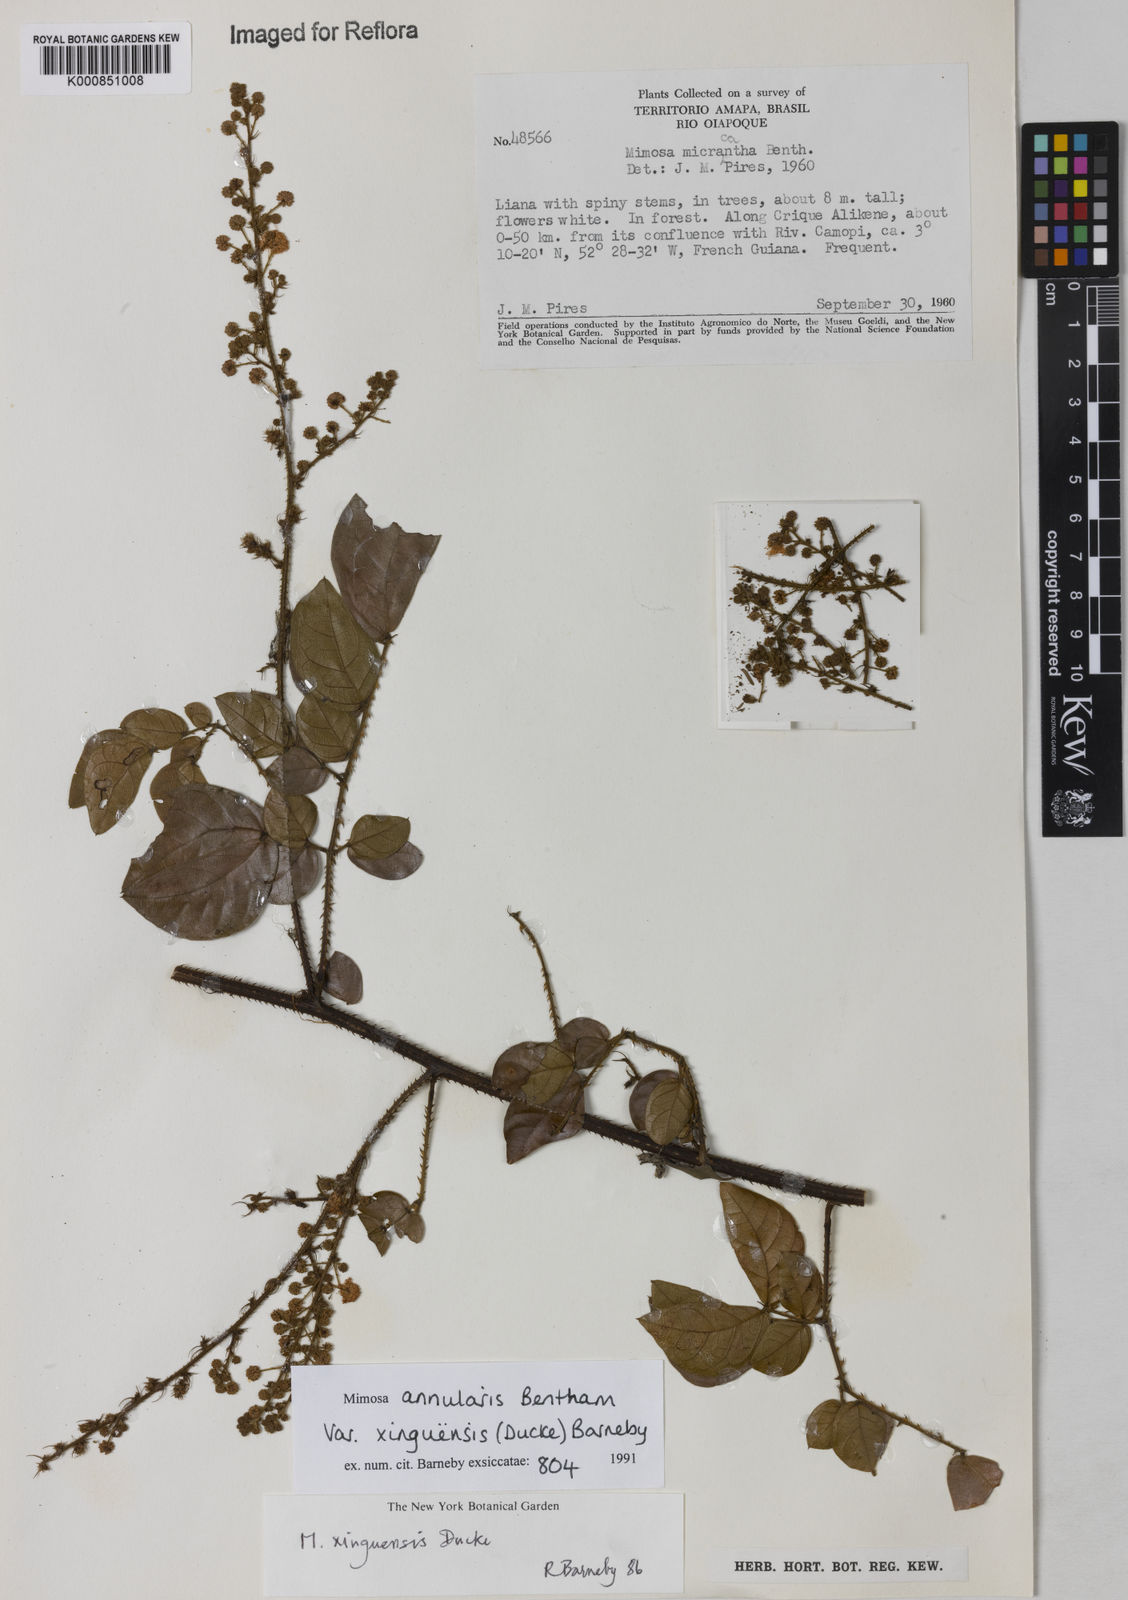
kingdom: Plantae
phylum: Tracheophyta
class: Magnoliopsida
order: Fabales
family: Fabaceae
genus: Mimosa
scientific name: Mimosa annularis
